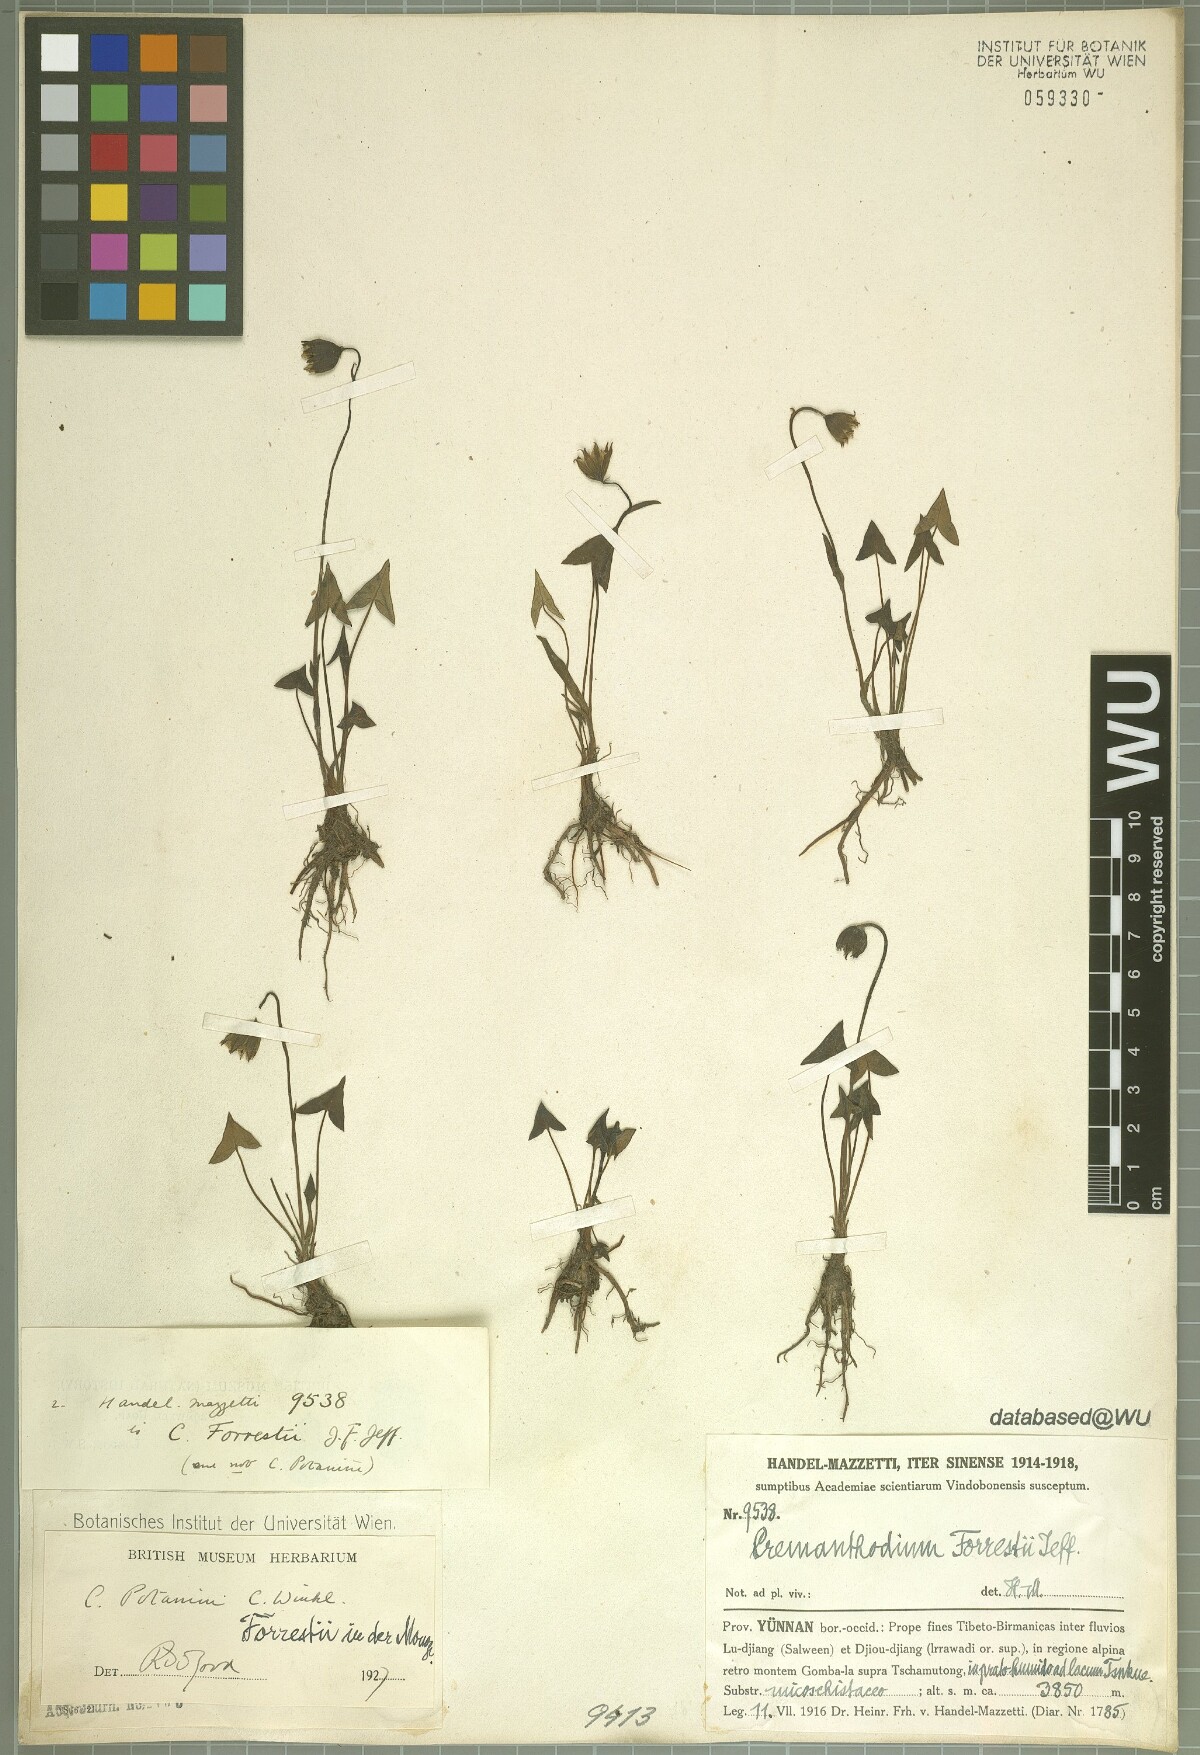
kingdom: Plantae
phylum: Tracheophyta
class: Magnoliopsida
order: Asterales
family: Asteraceae
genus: Cremanthodium
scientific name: Cremanthodium forrestii
